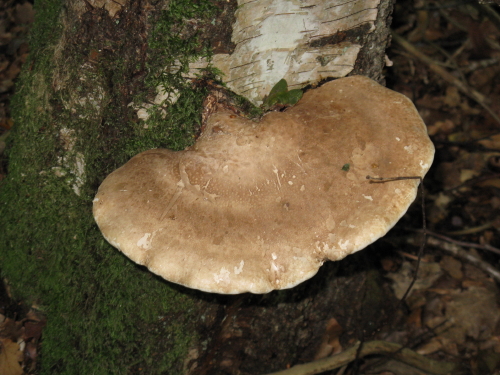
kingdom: Fungi
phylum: Basidiomycota
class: Agaricomycetes
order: Polyporales
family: Fomitopsidaceae
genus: Fomitopsis
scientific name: Fomitopsis betulina
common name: birkeporesvamp
